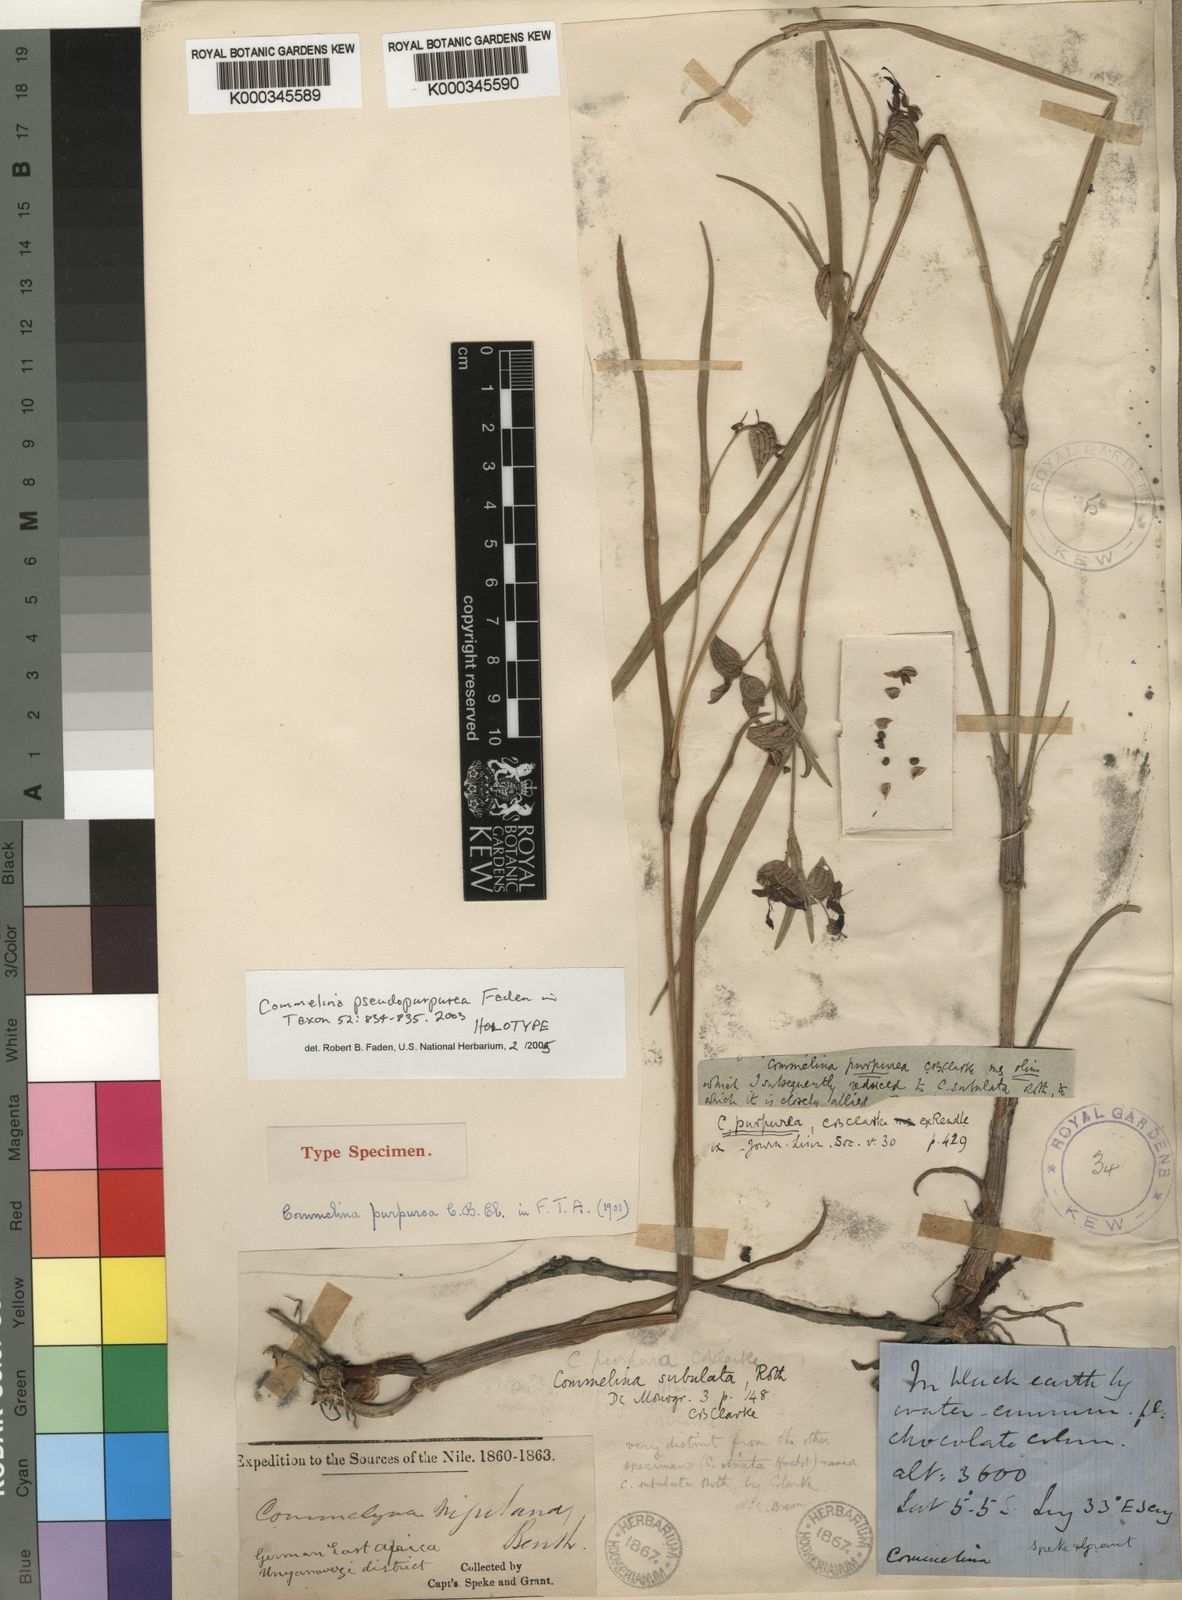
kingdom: Plantae
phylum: Tracheophyta
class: Liliopsida
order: Commelinales
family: Commelinaceae
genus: Commelina
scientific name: Commelina pseudopurpurea
